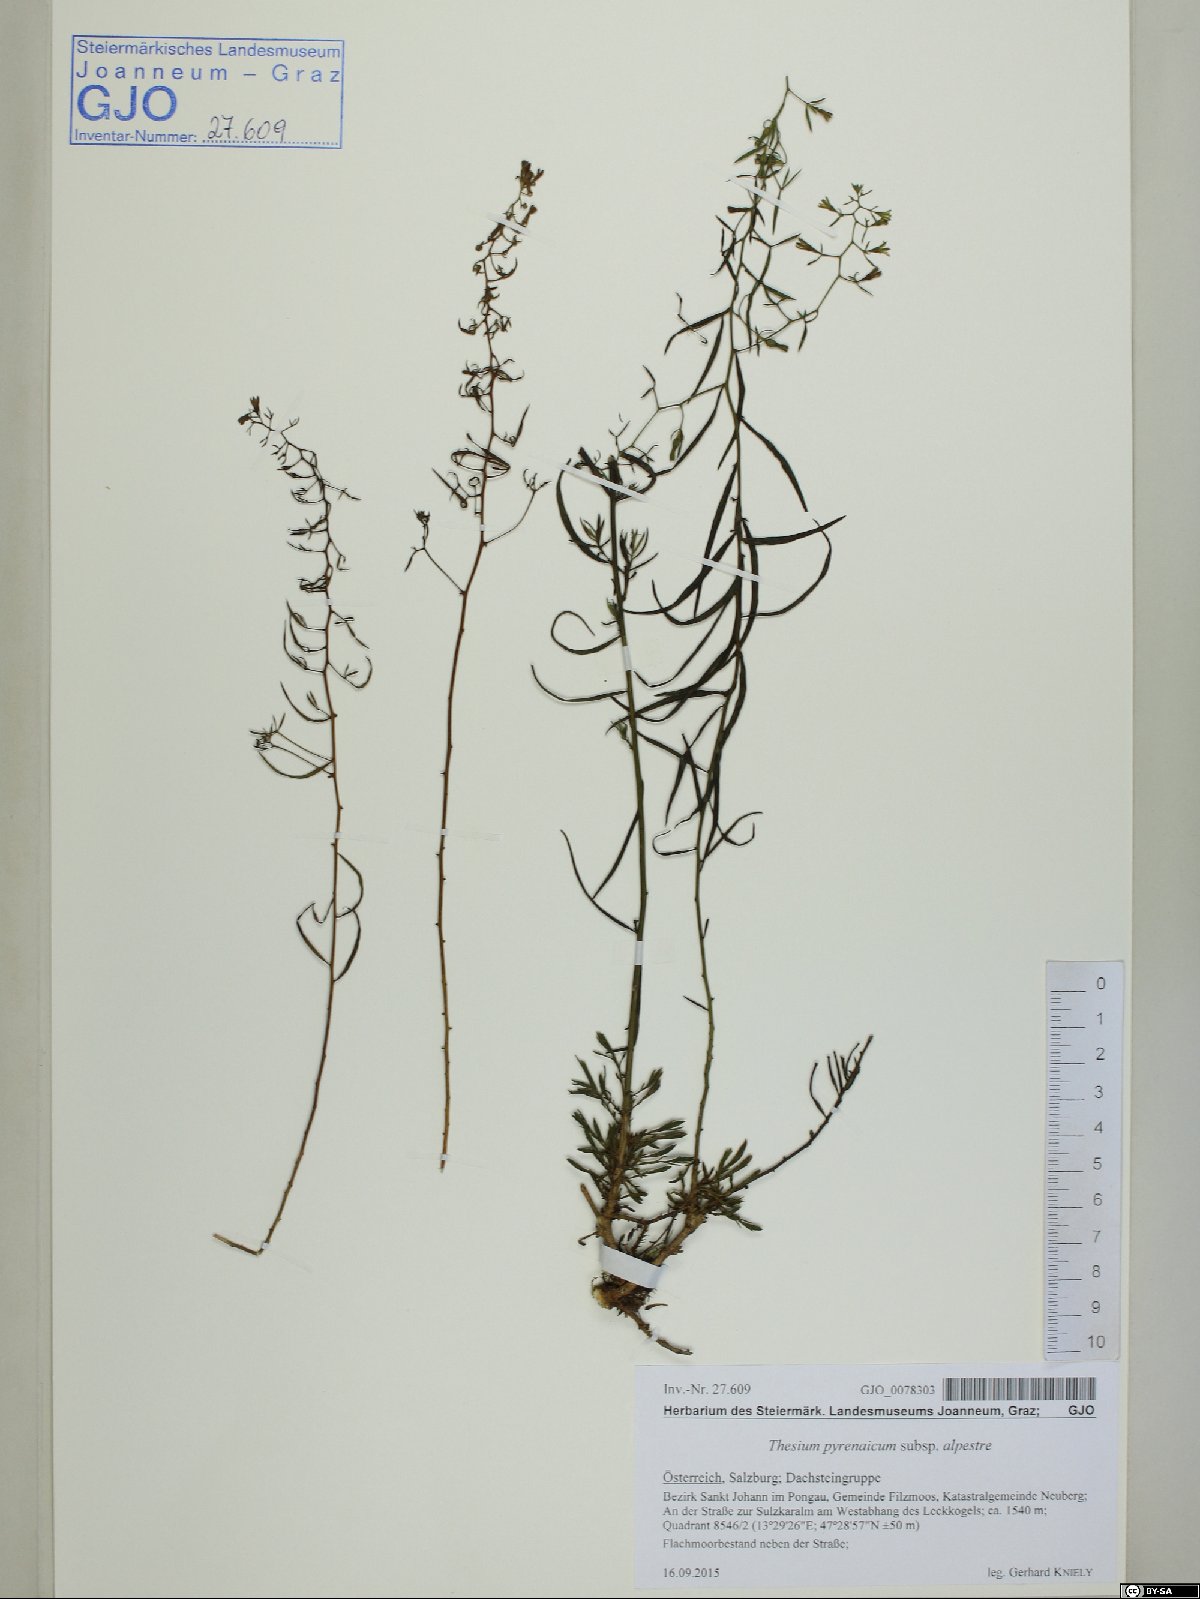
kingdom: Plantae
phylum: Tracheophyta
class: Magnoliopsida
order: Santalales
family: Thesiaceae
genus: Thesium
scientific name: Thesium pyrenaicum
